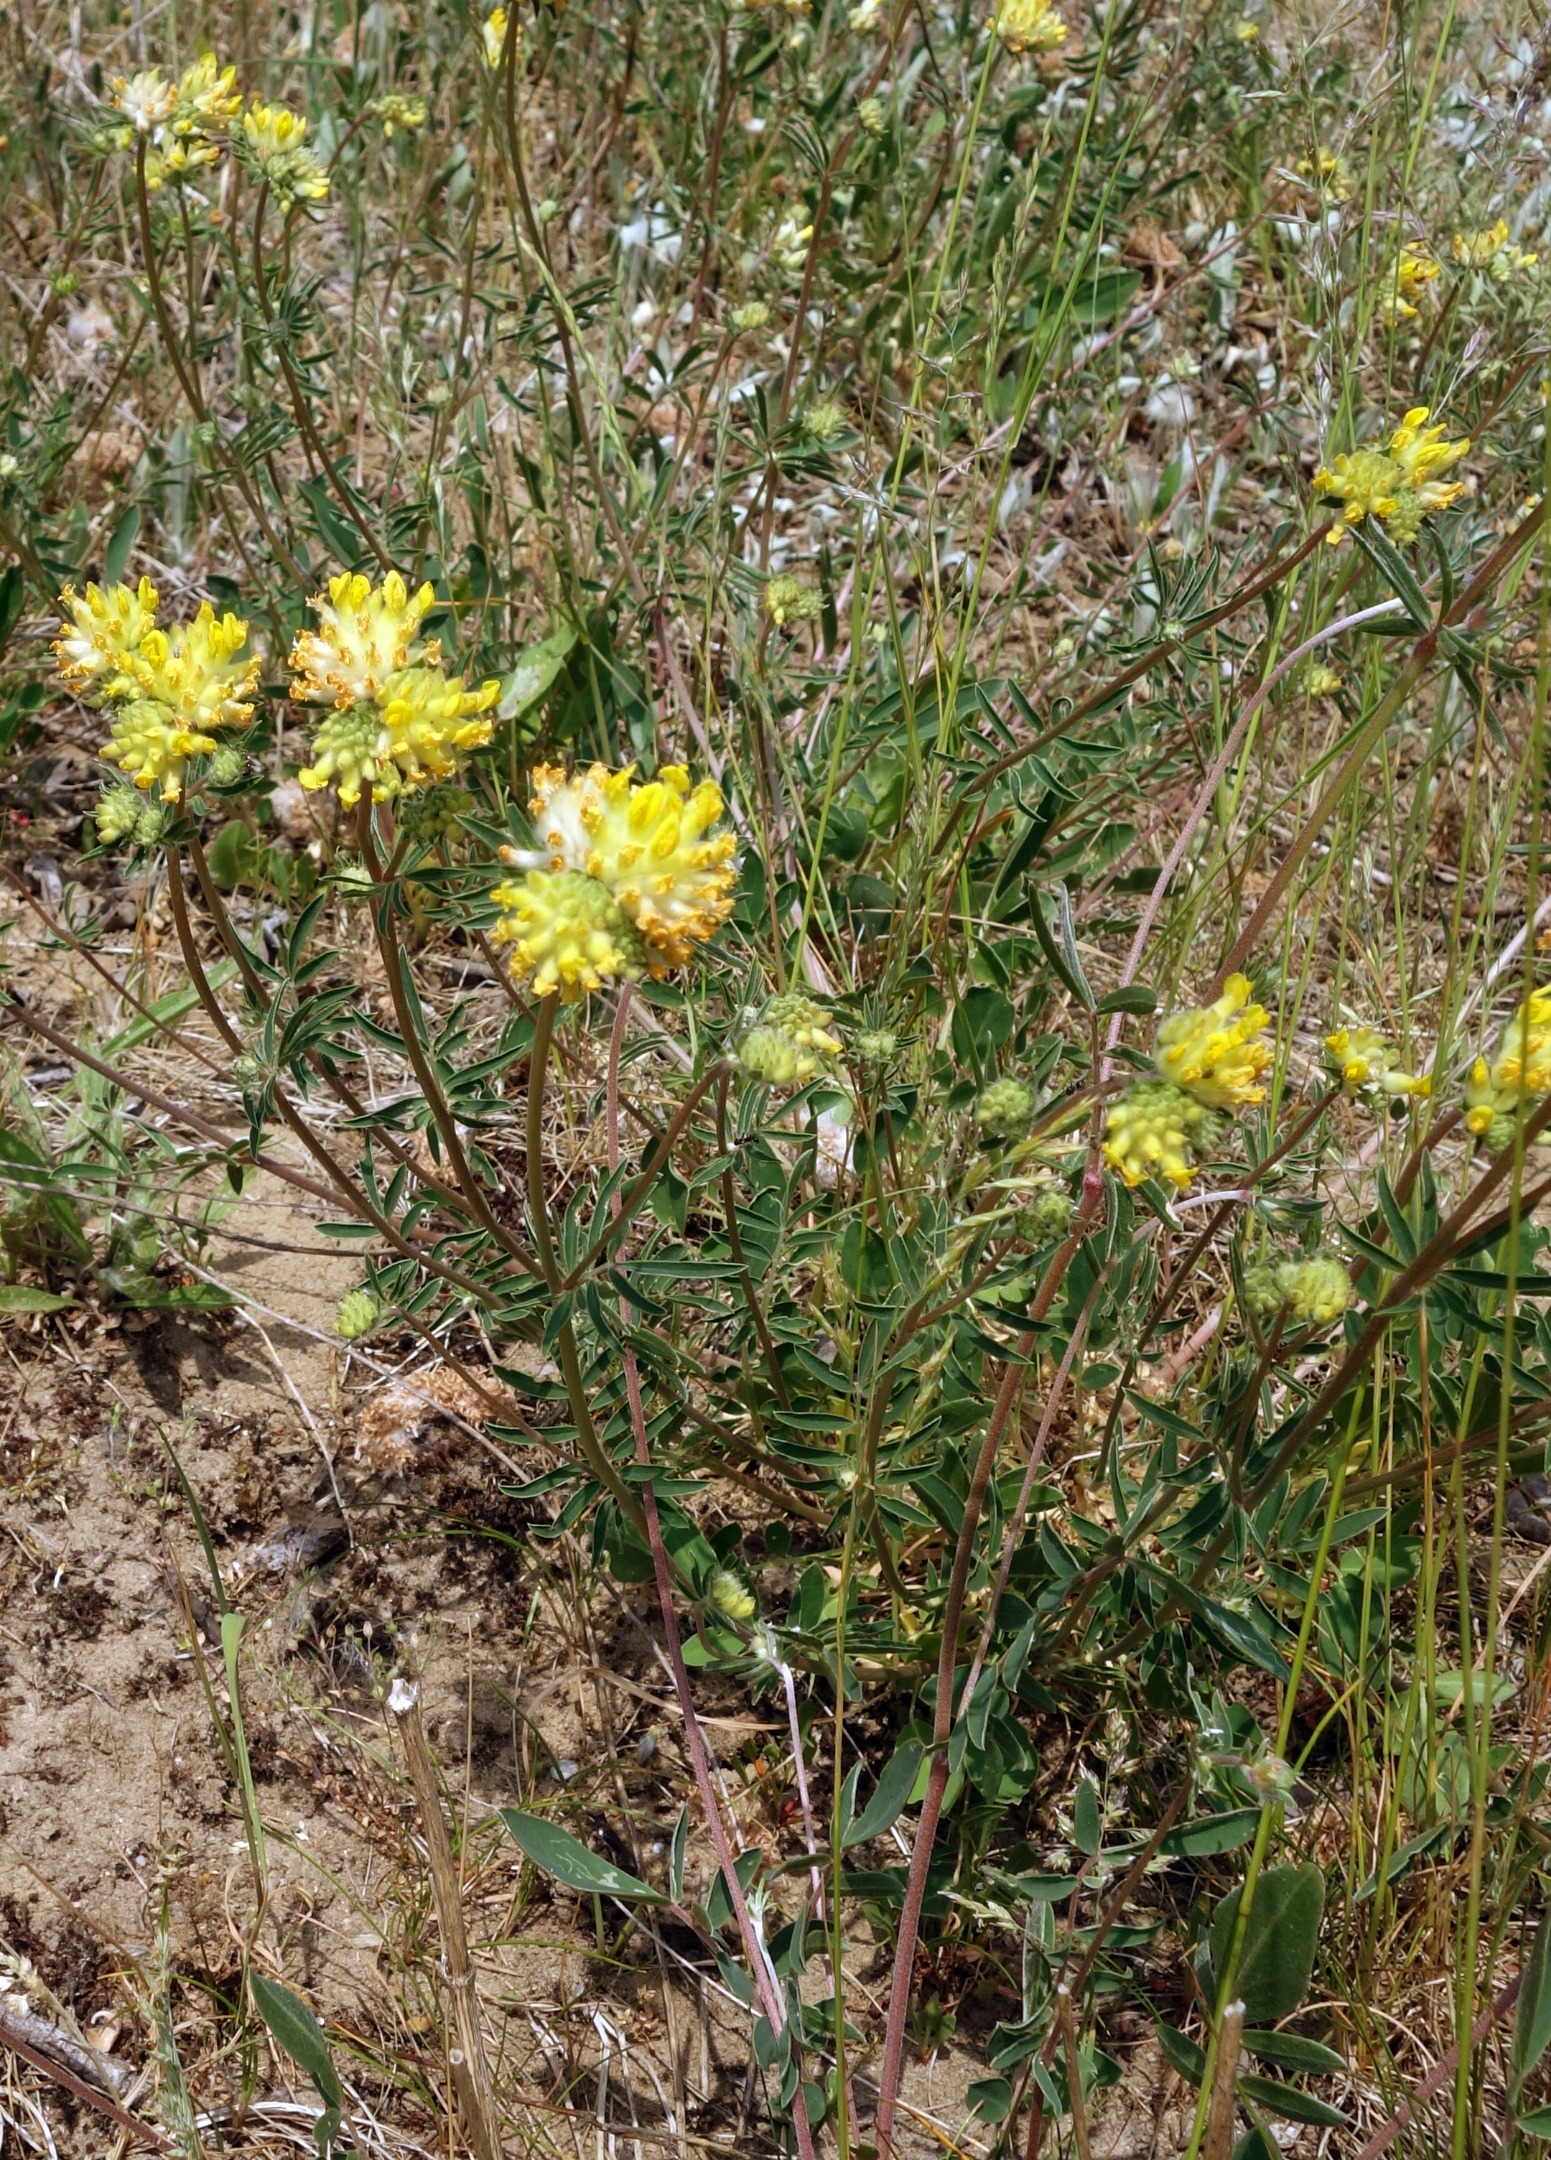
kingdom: Plantae
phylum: Tracheophyta
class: Magnoliopsida
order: Fabales
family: Fabaceae
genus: Anthyllis
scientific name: Anthyllis vulneraria
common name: Rundbælg
